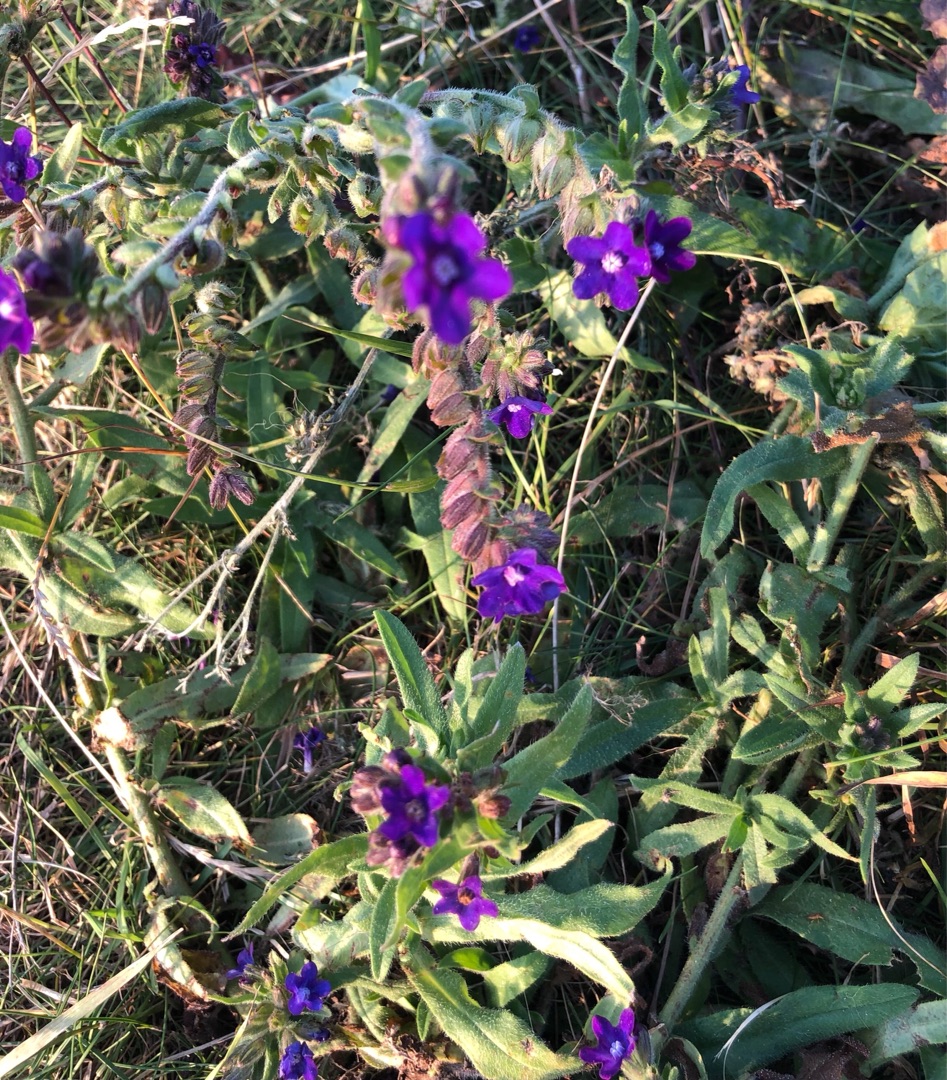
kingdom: Plantae
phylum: Tracheophyta
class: Magnoliopsida
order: Boraginales
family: Boraginaceae
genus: Anchusa
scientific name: Anchusa officinalis
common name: Læge-oksetunge
